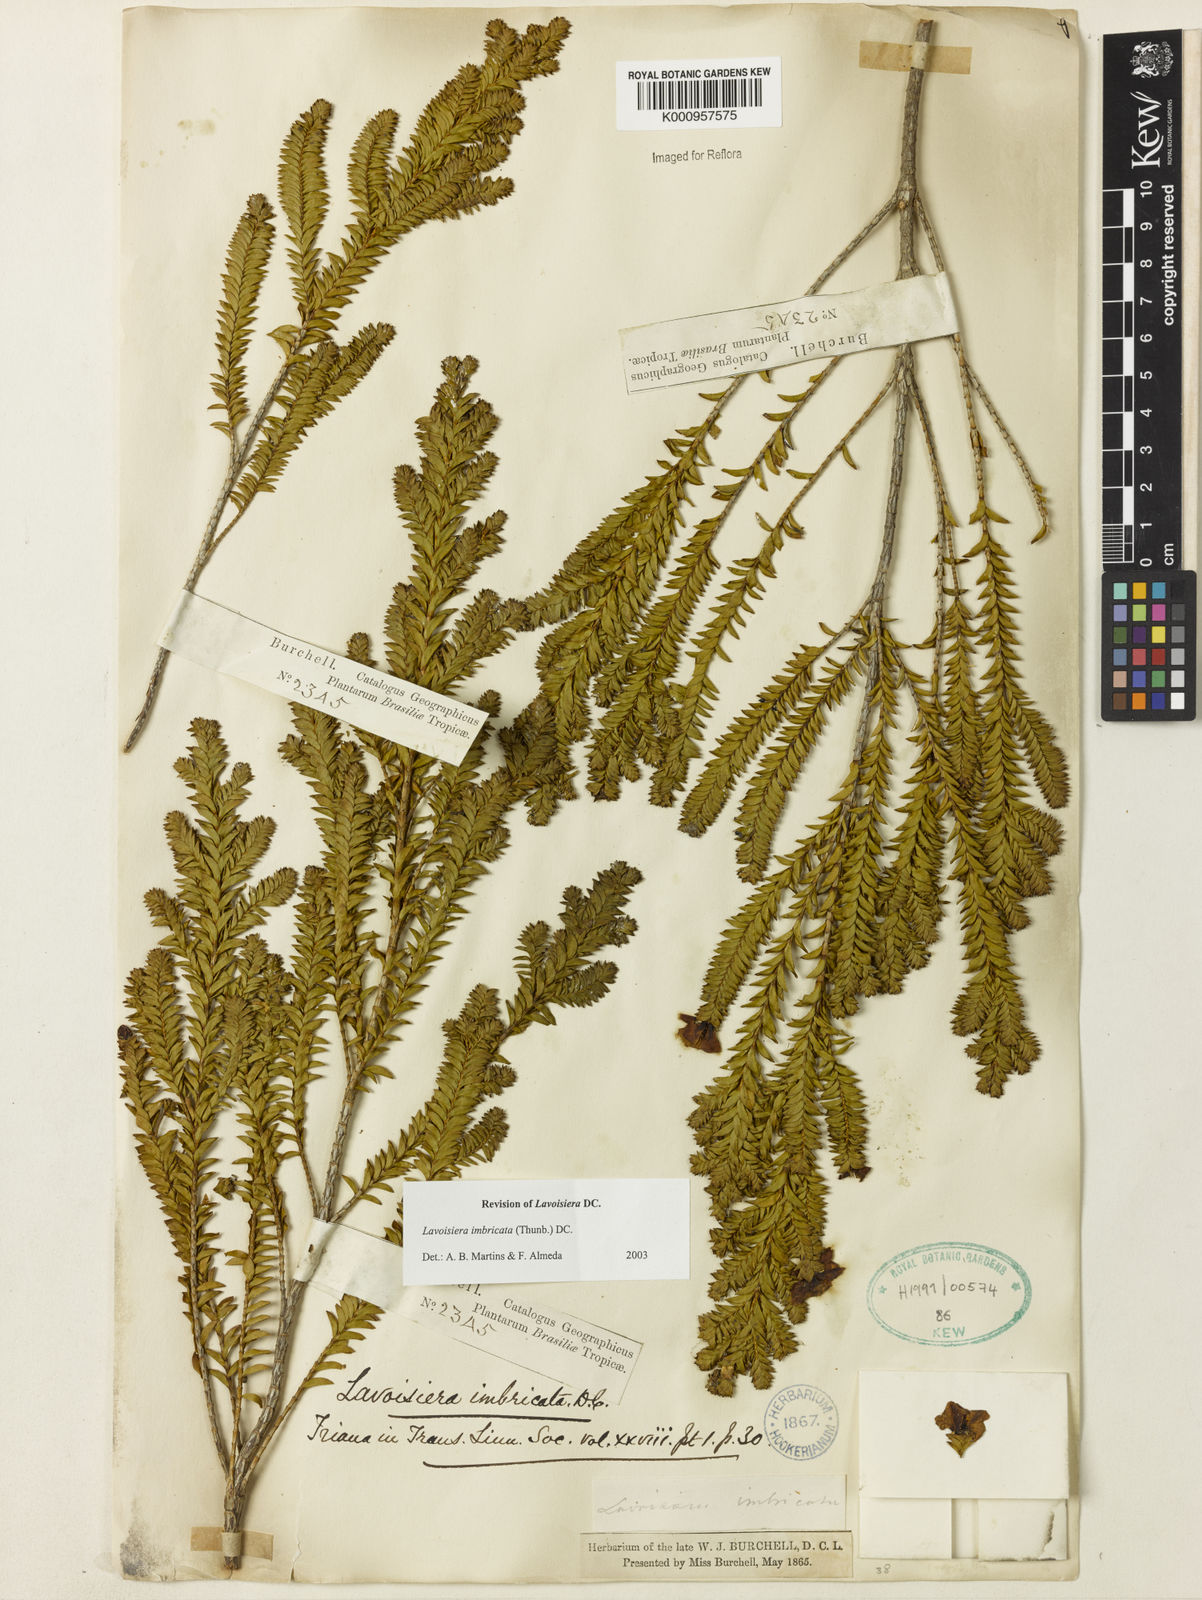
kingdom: Plantae
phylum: Tracheophyta
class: Magnoliopsida
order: Myrtales
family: Melastomataceae
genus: Microlicia
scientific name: Microlicia cataphracta
